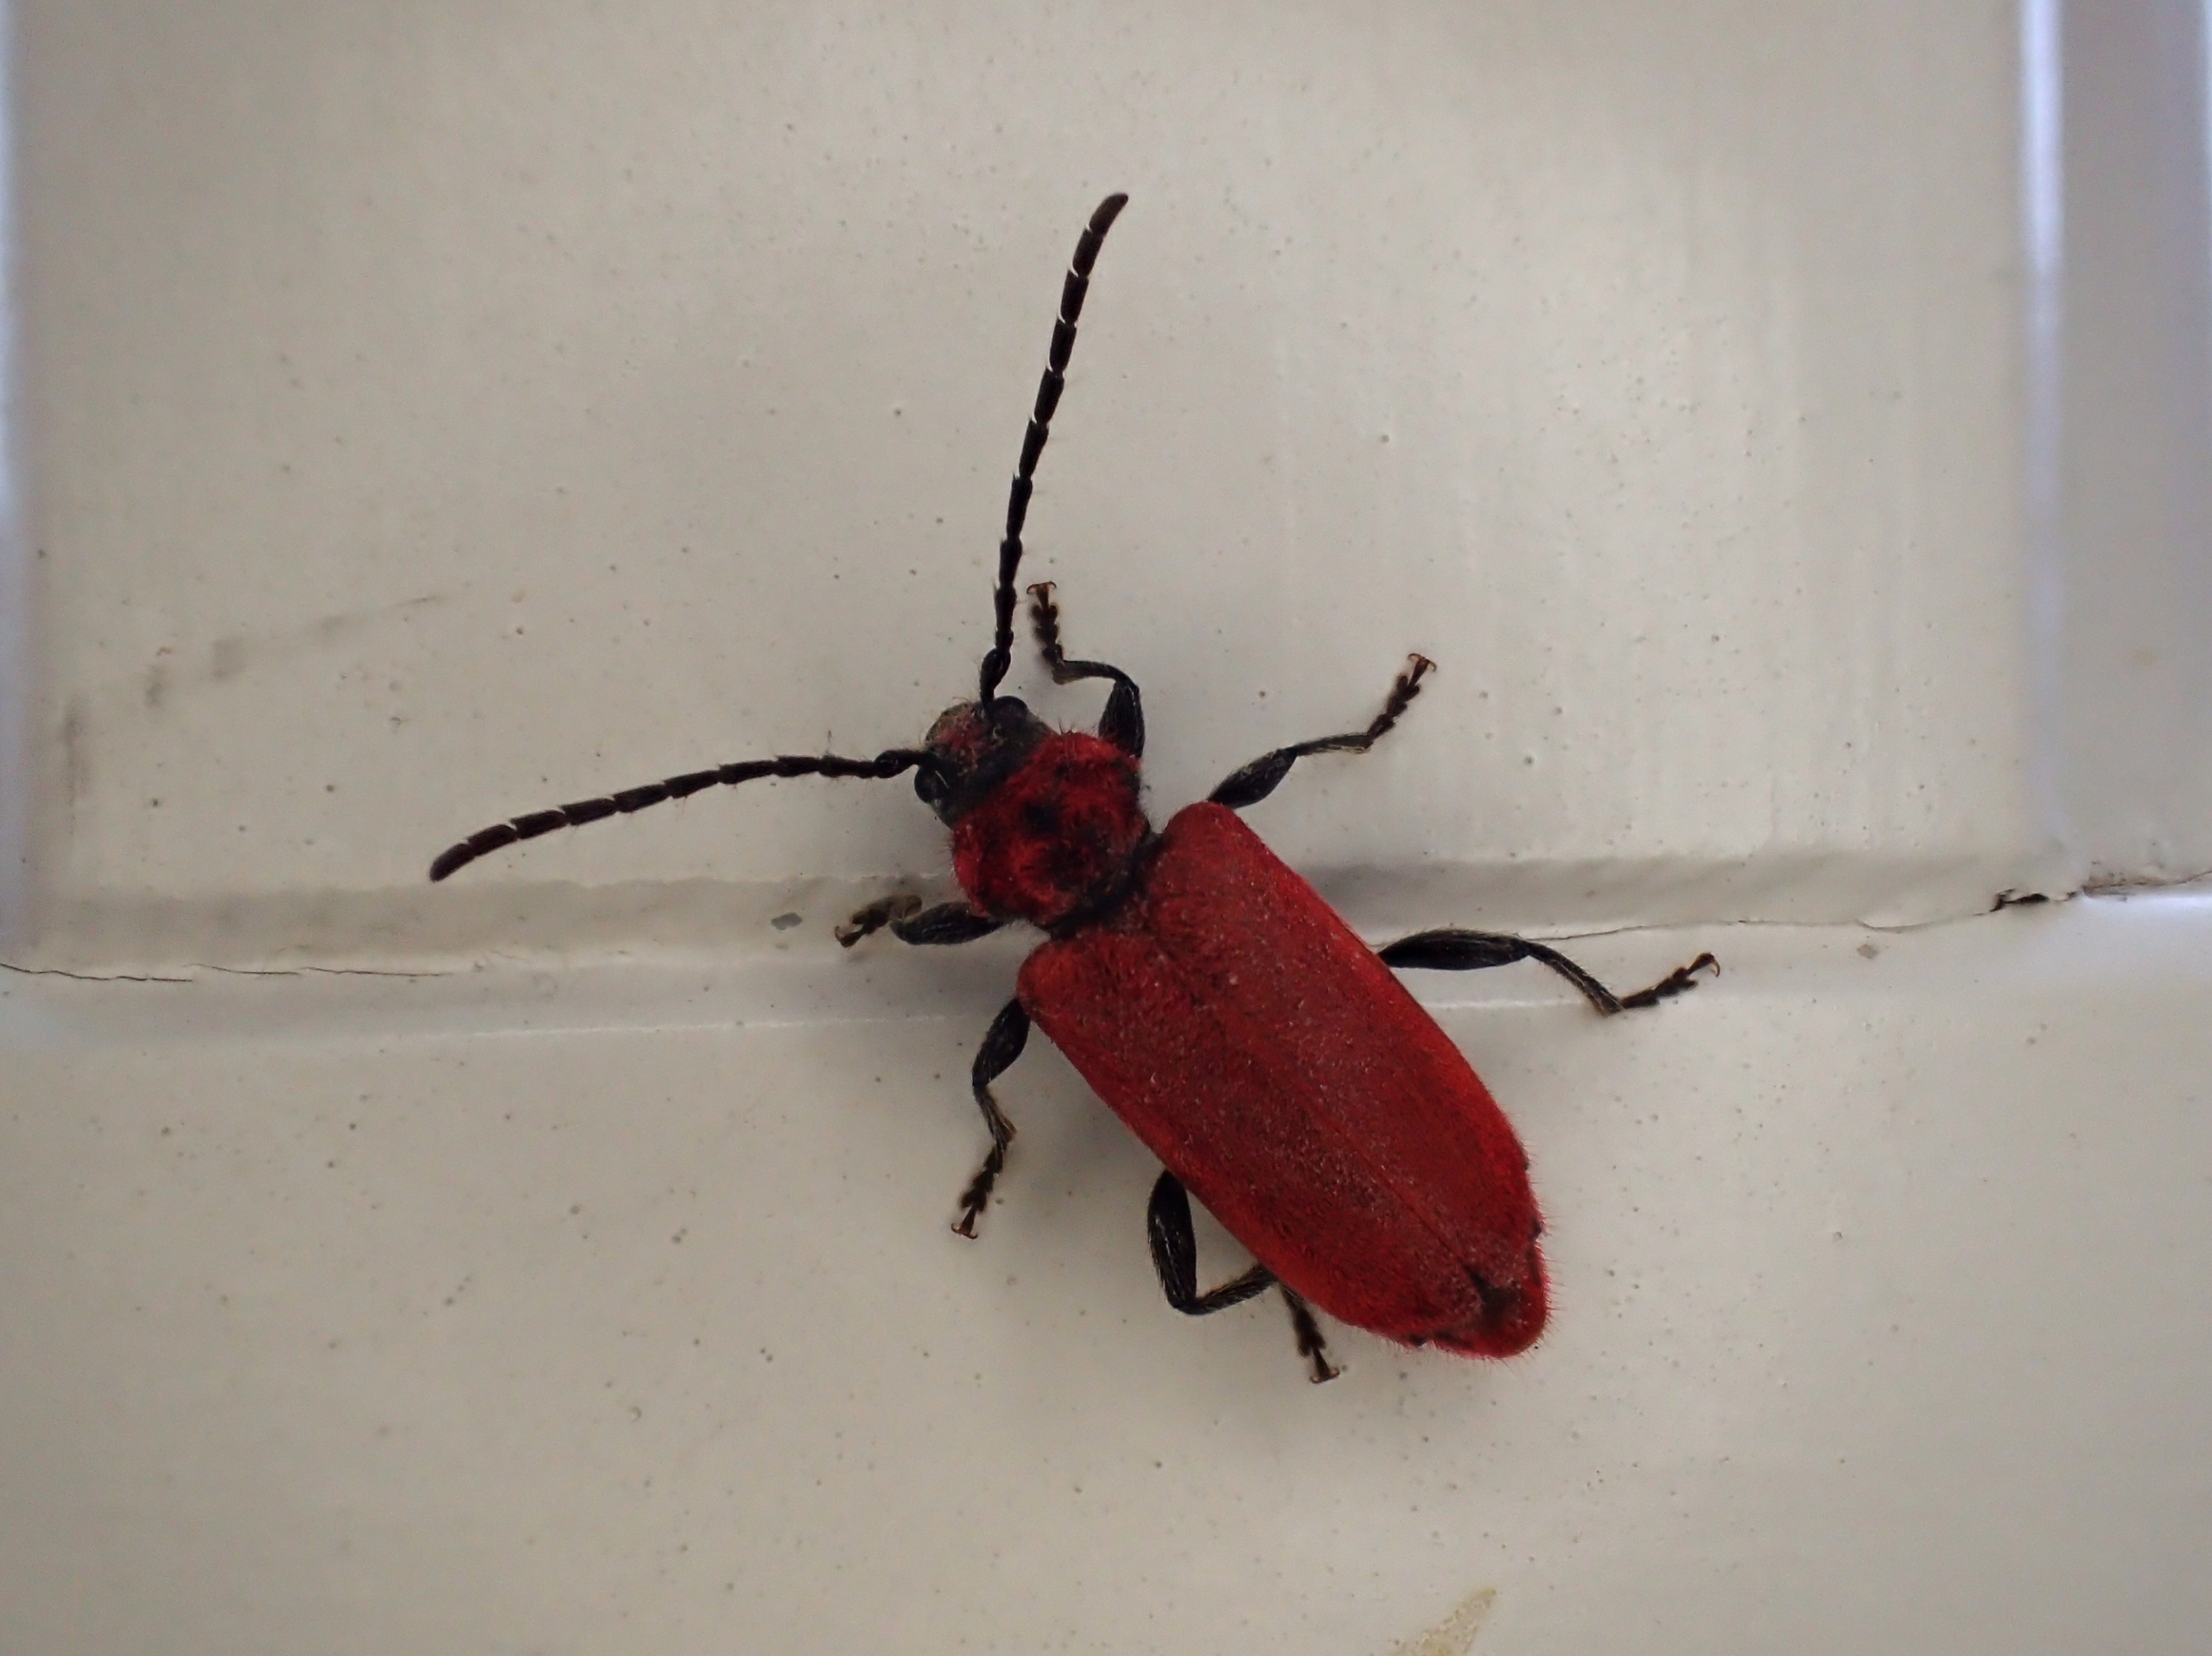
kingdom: Animalia
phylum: Arthropoda
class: Insecta
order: Coleoptera
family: Cerambycidae
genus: Pyrrhidium
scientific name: Pyrrhidium sanguineum
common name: Rød skivebuk
